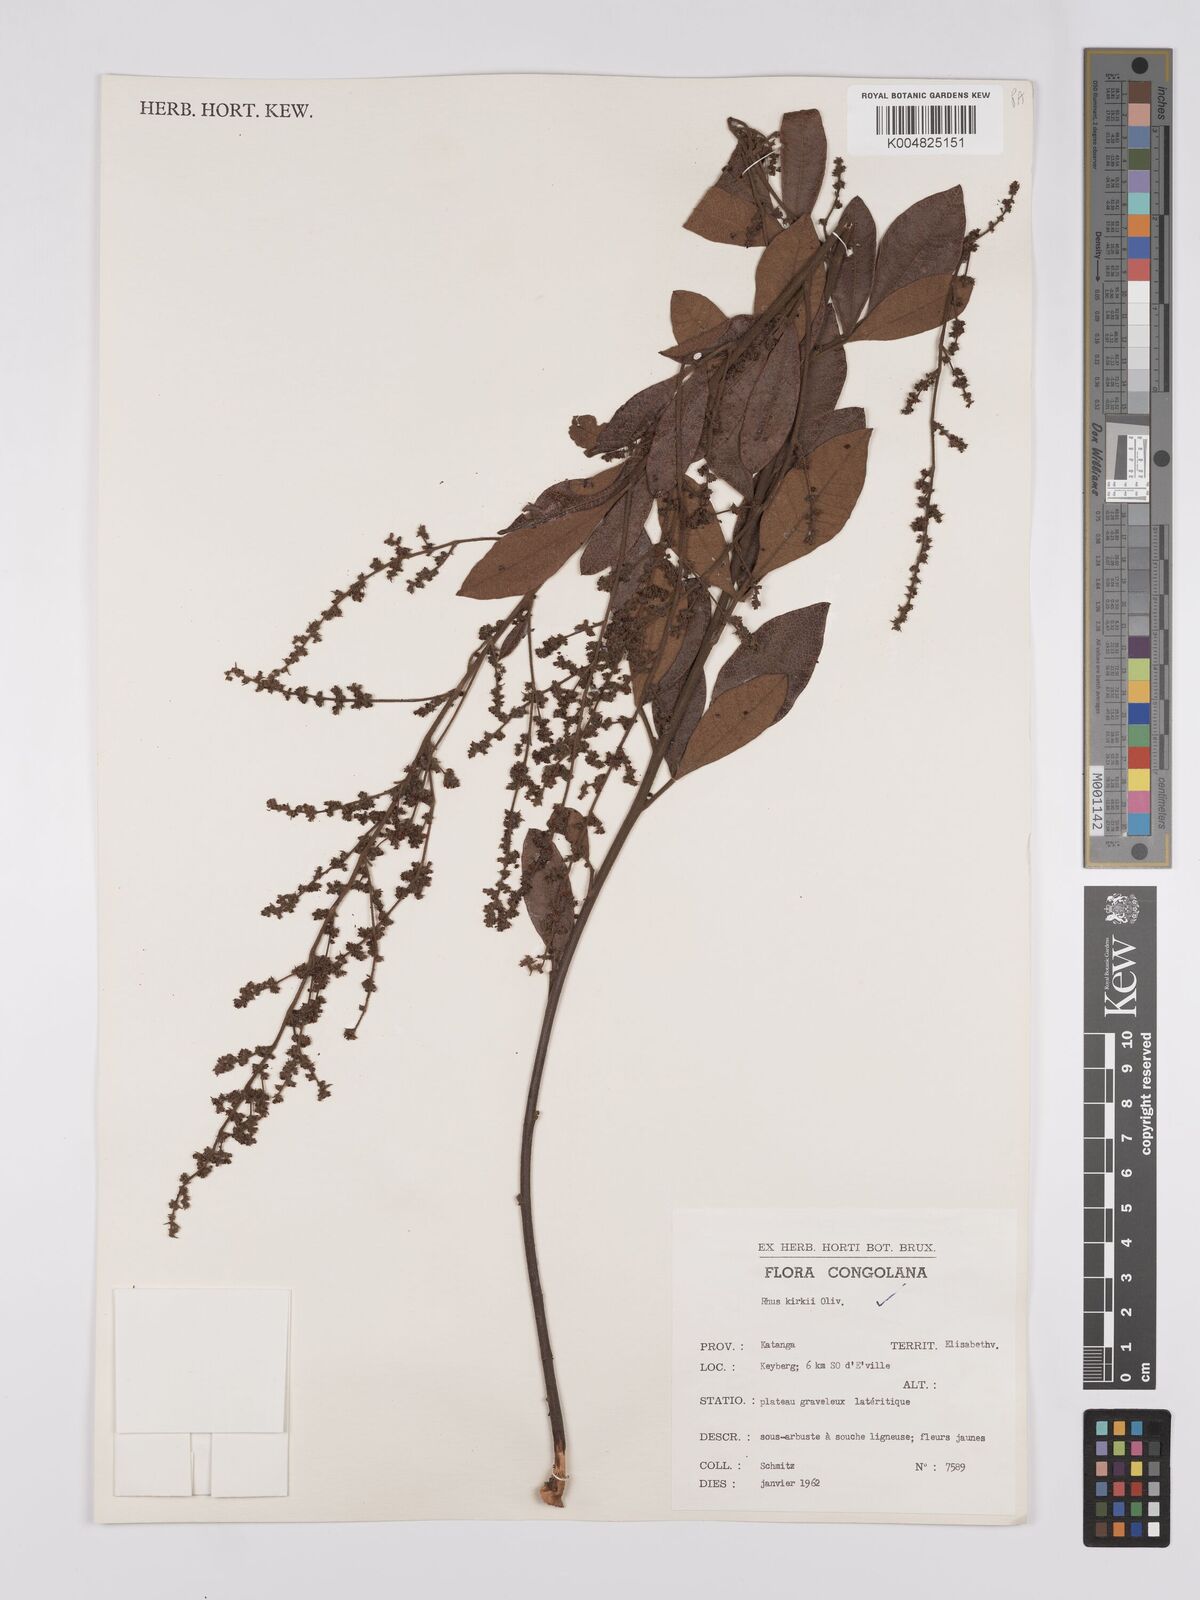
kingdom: Plantae
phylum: Tracheophyta
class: Magnoliopsida
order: Sapindales
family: Anacardiaceae
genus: Searsia
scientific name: Searsia kirkii
